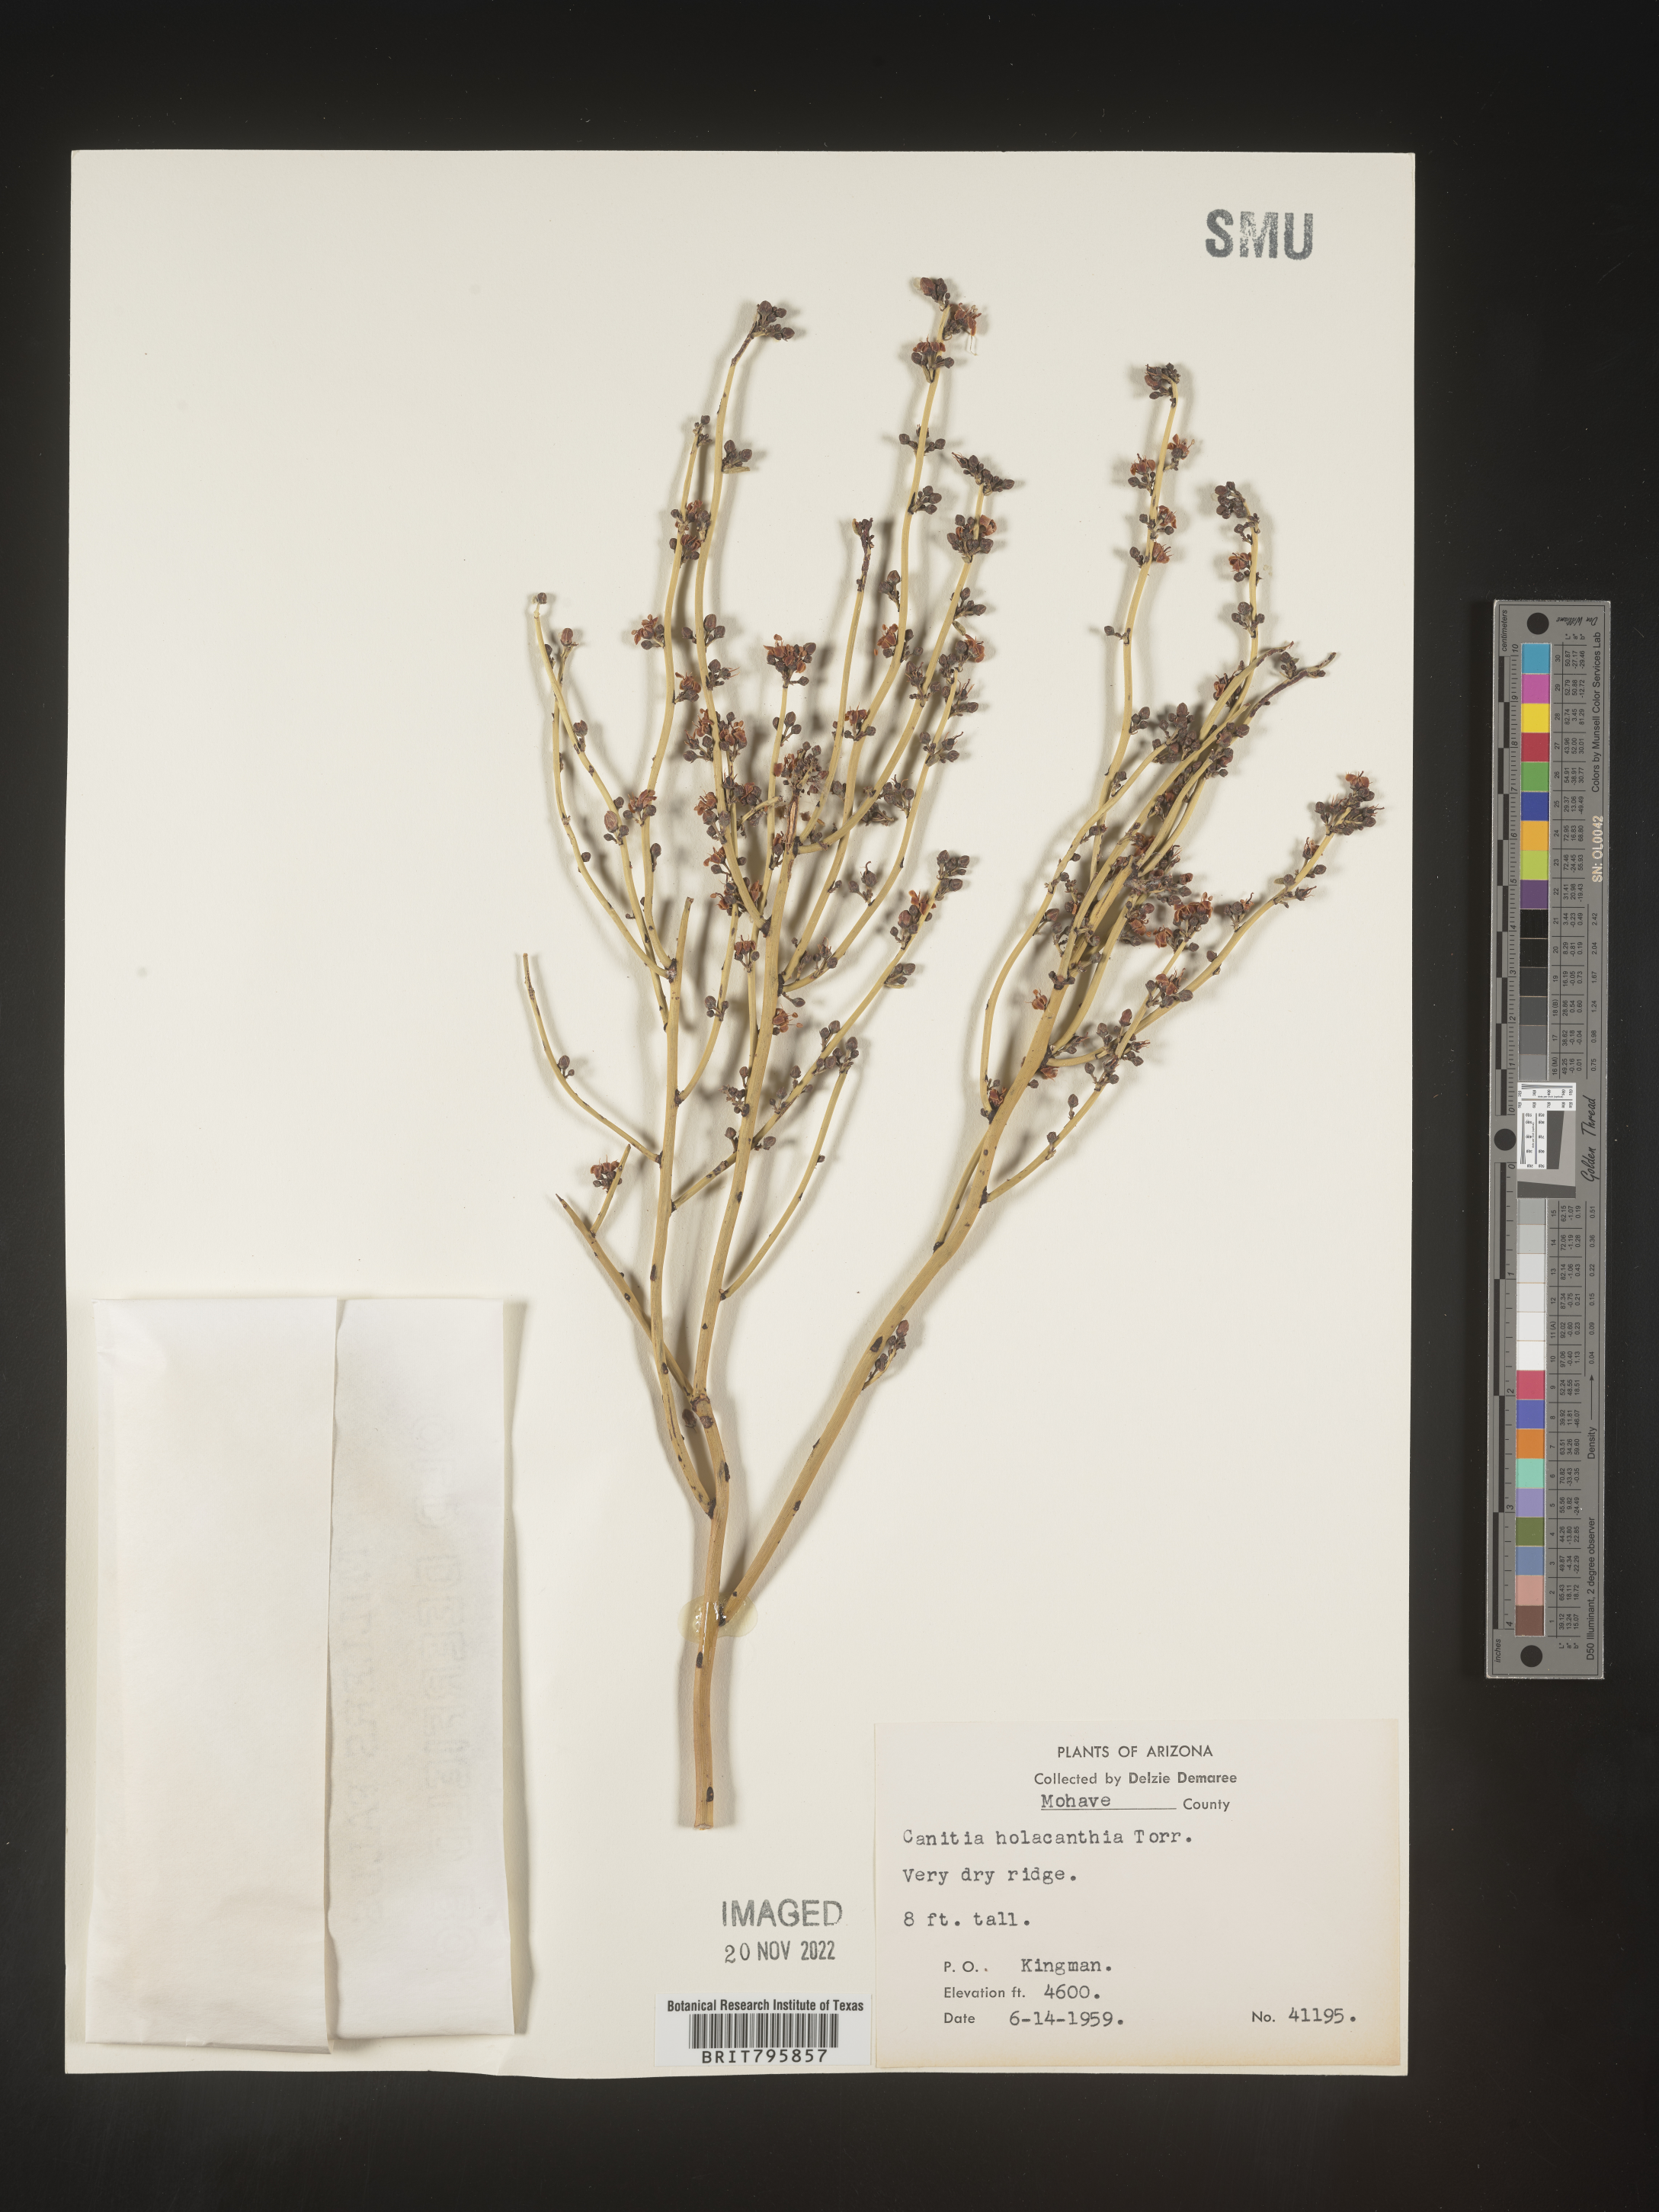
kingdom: Plantae
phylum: Tracheophyta
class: Magnoliopsida
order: Celastrales
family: Celastraceae
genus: Canotia
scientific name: Canotia
